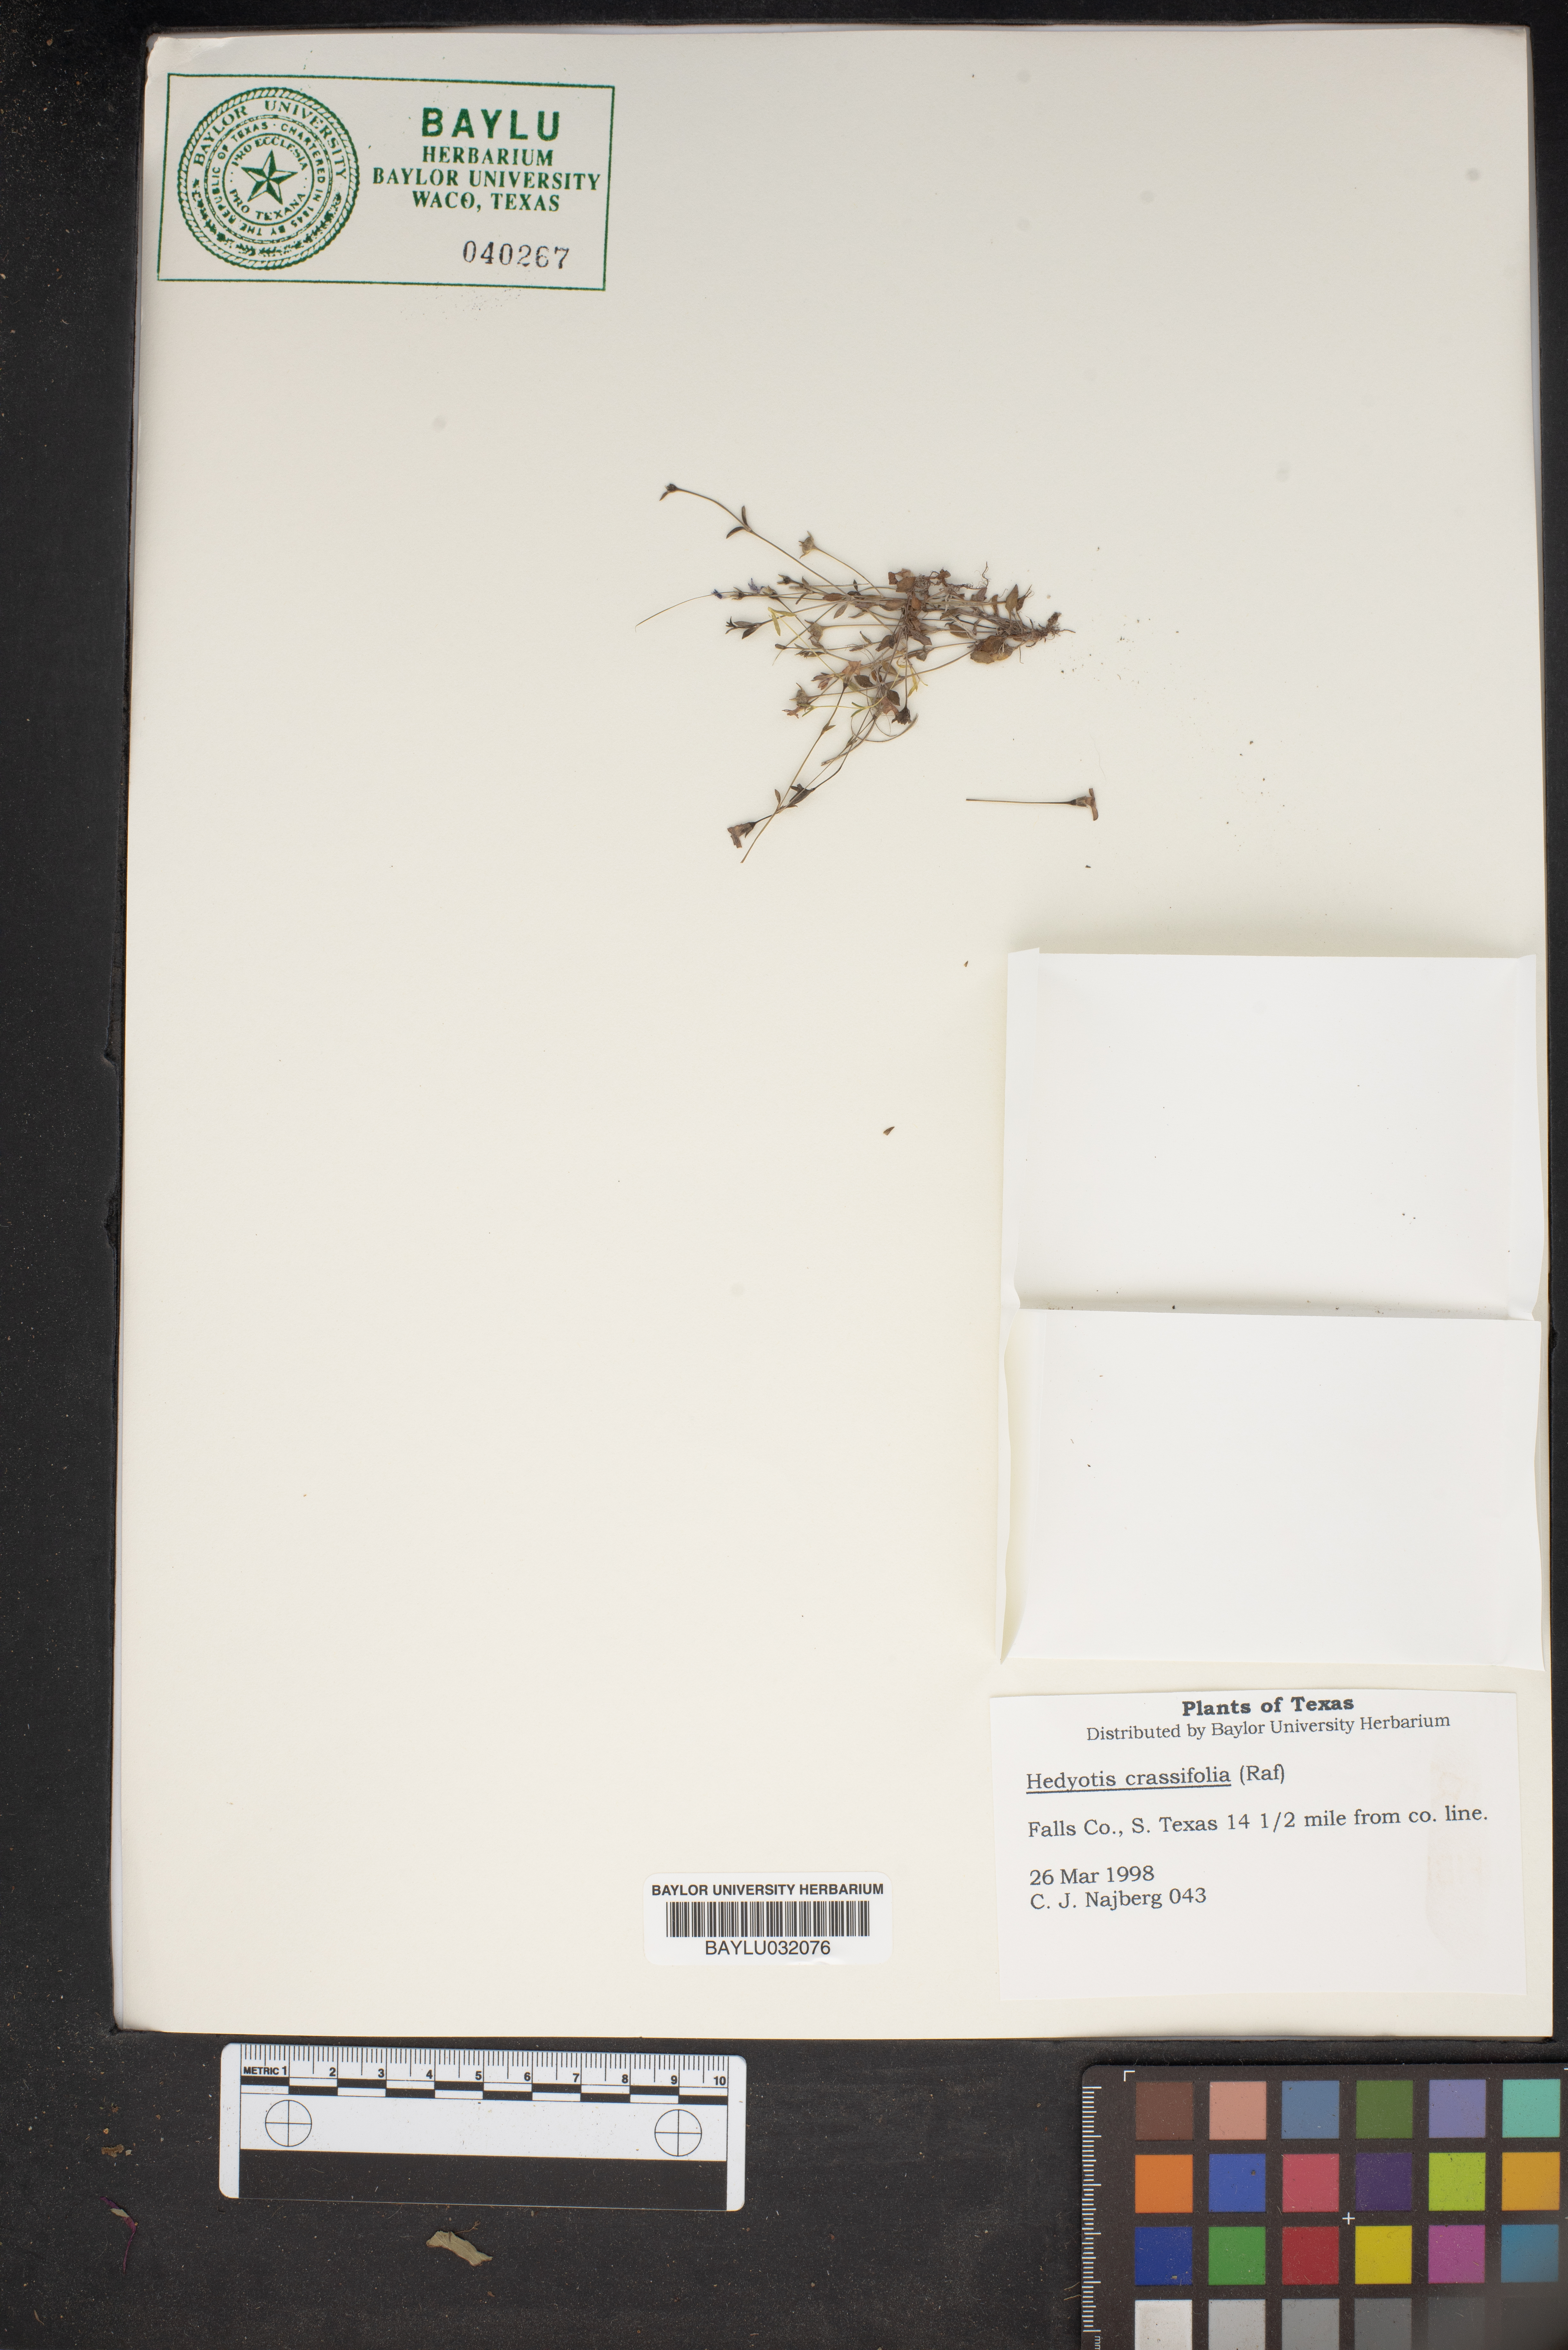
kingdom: Plantae
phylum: Tracheophyta
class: Magnoliopsida
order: Gentianales
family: Rubiaceae
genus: Houstonia
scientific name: Houstonia pusilla
